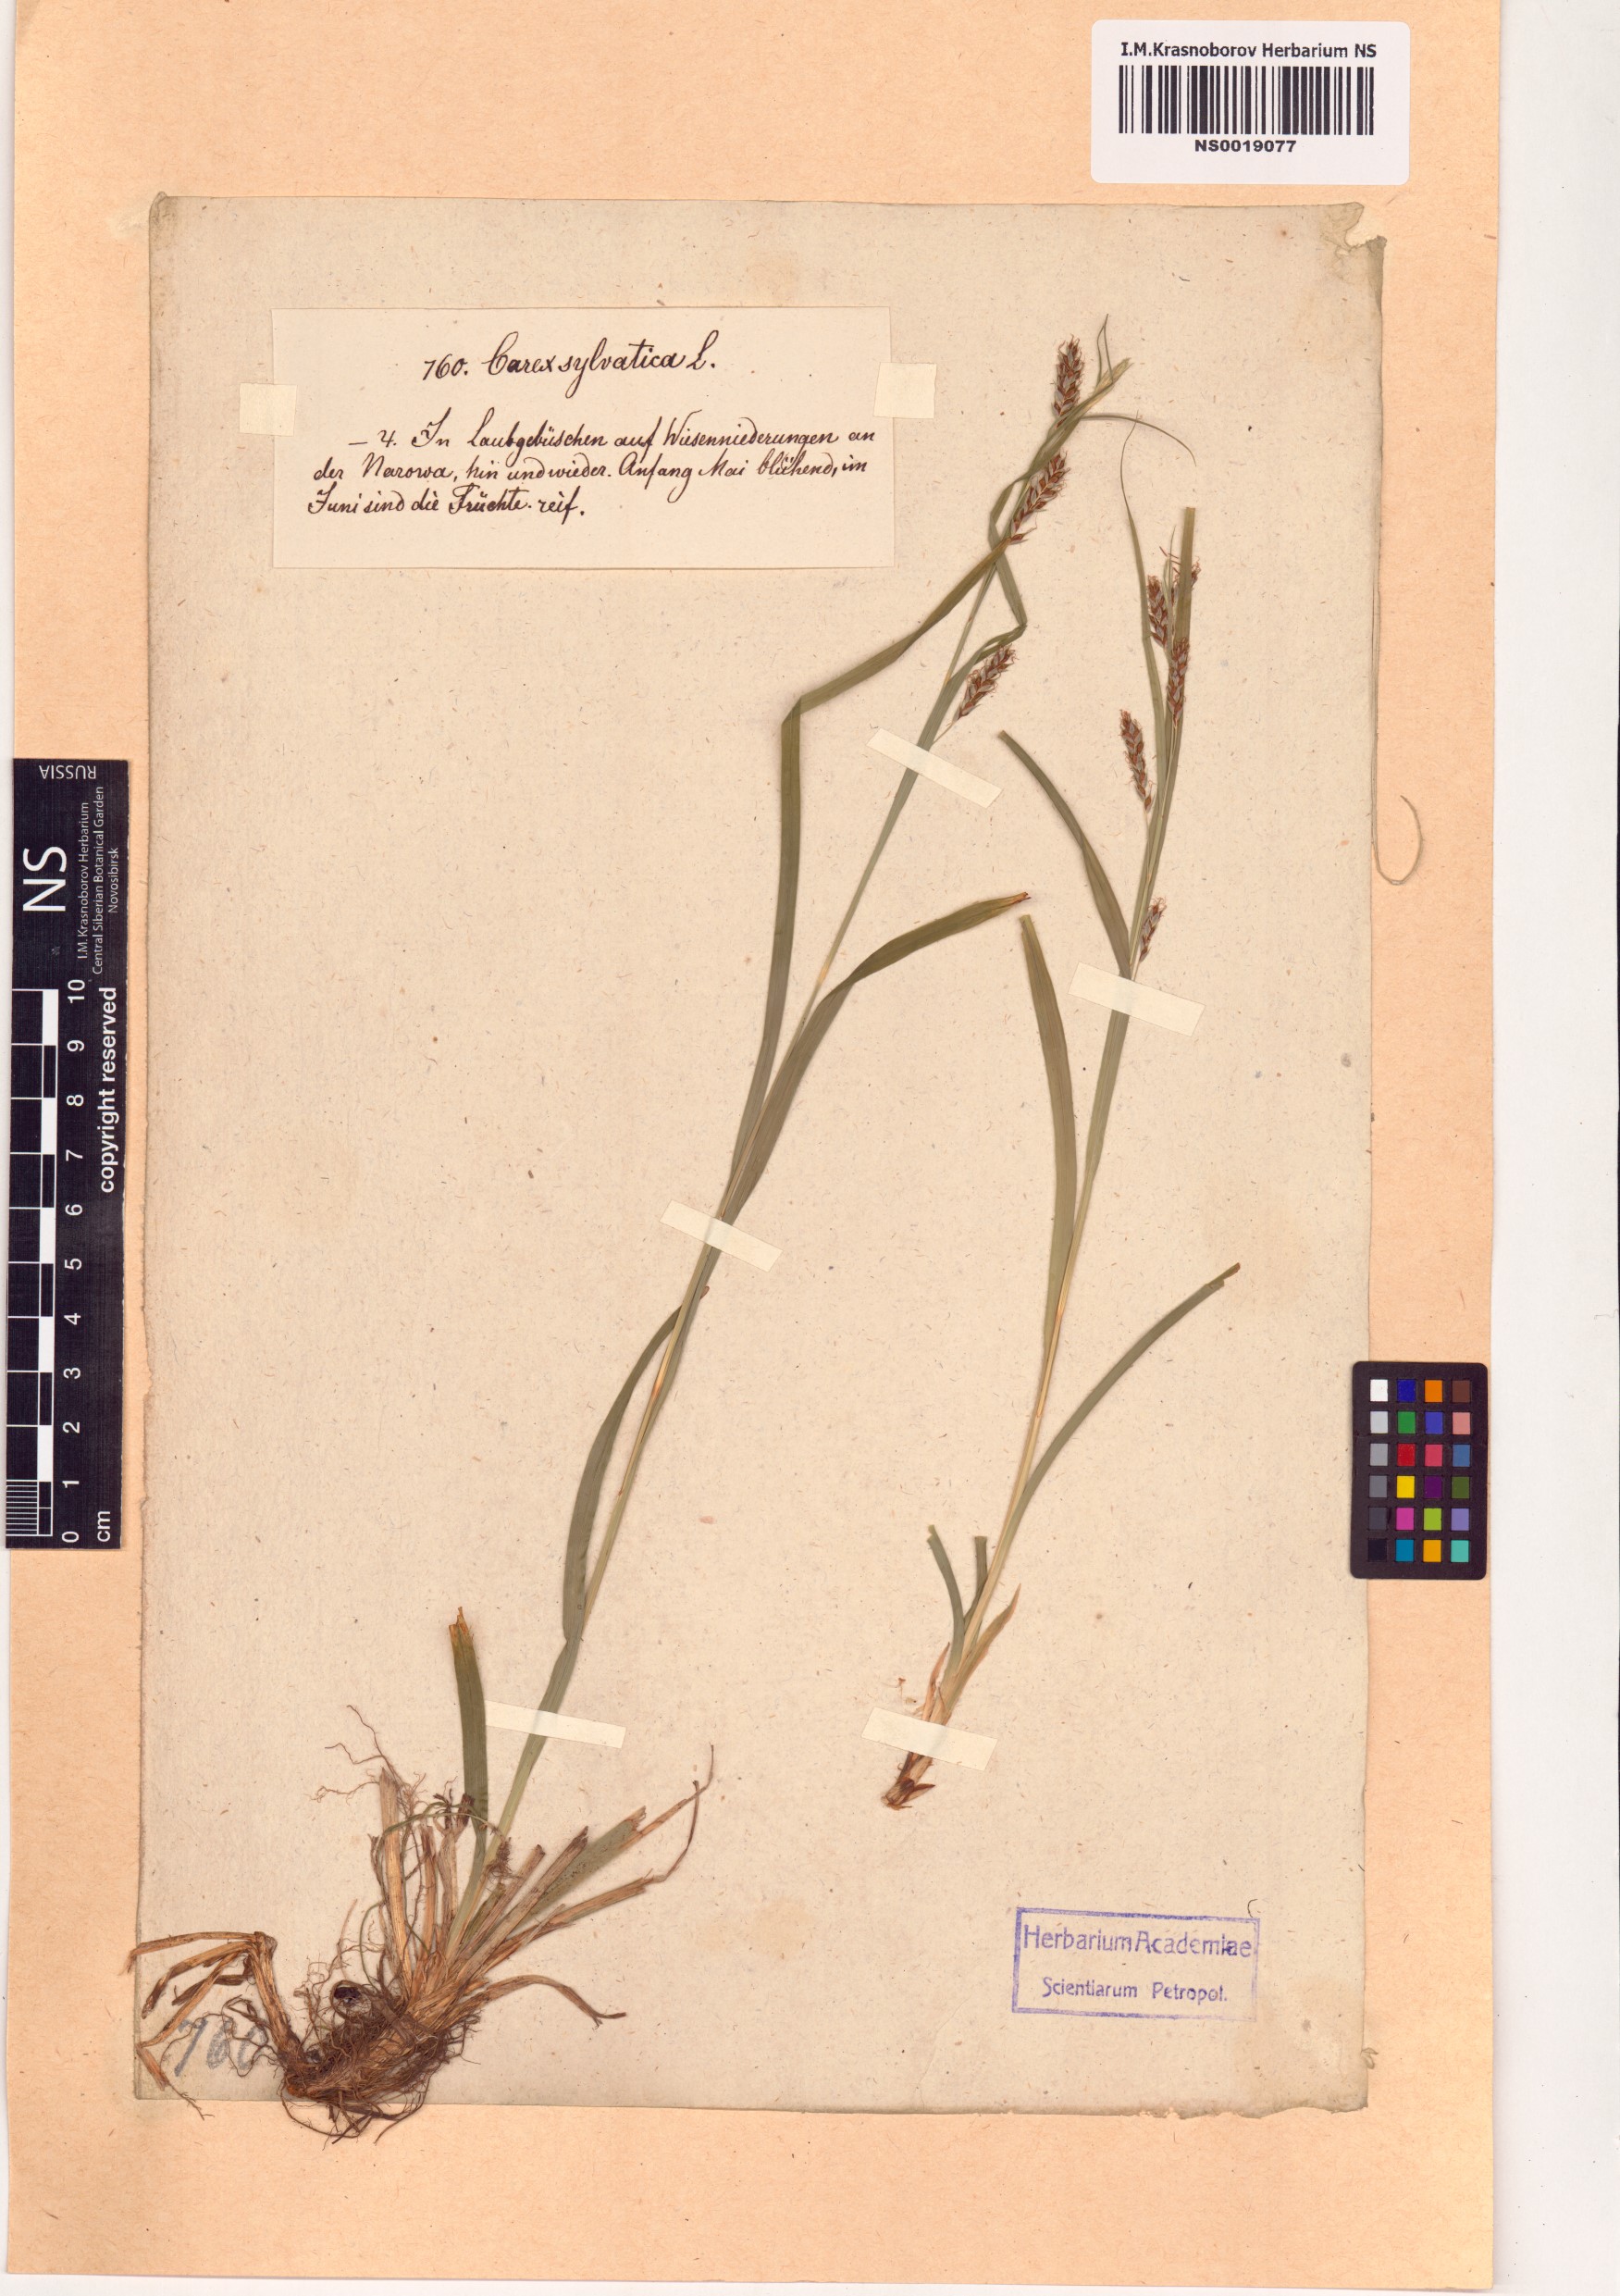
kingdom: Plantae
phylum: Tracheophyta
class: Liliopsida
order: Poales
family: Cyperaceae
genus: Carex
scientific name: Carex sylvatica
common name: Wood-sedge
